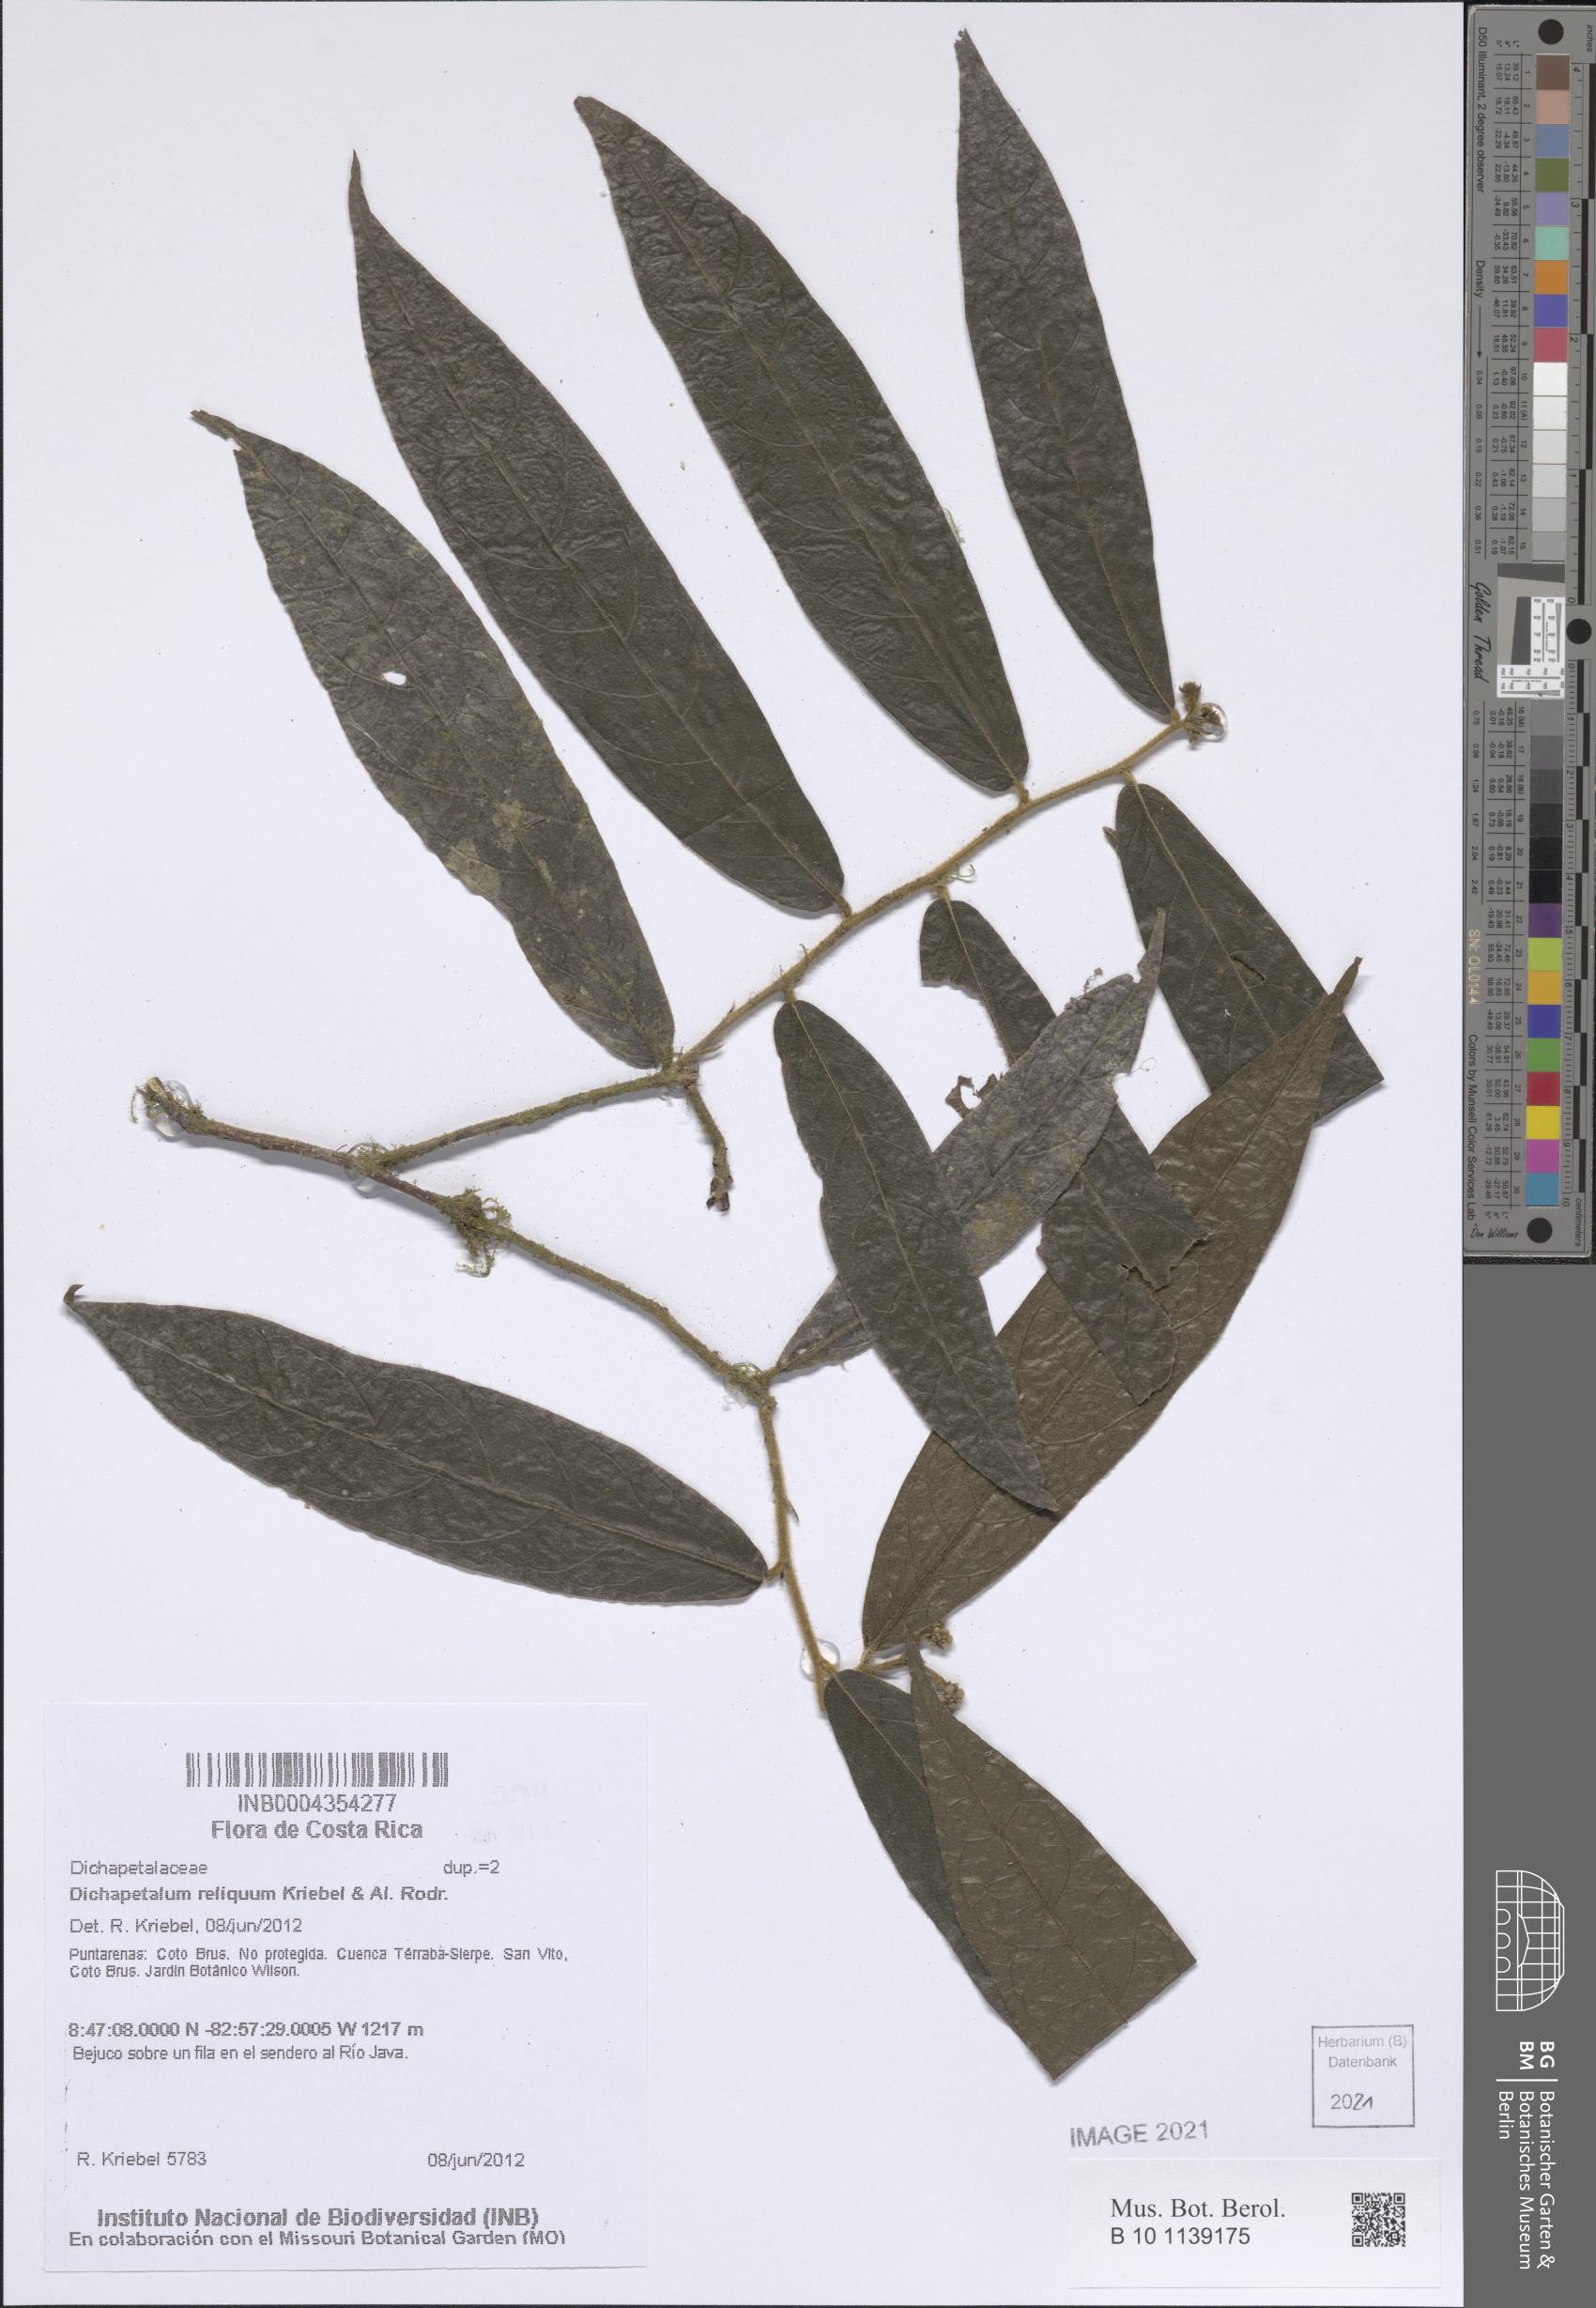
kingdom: Plantae
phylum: Tracheophyta
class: Magnoliopsida
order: Malpighiales
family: Dichapetalaceae
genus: Dichapetalum
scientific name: Dichapetalum reliquum
